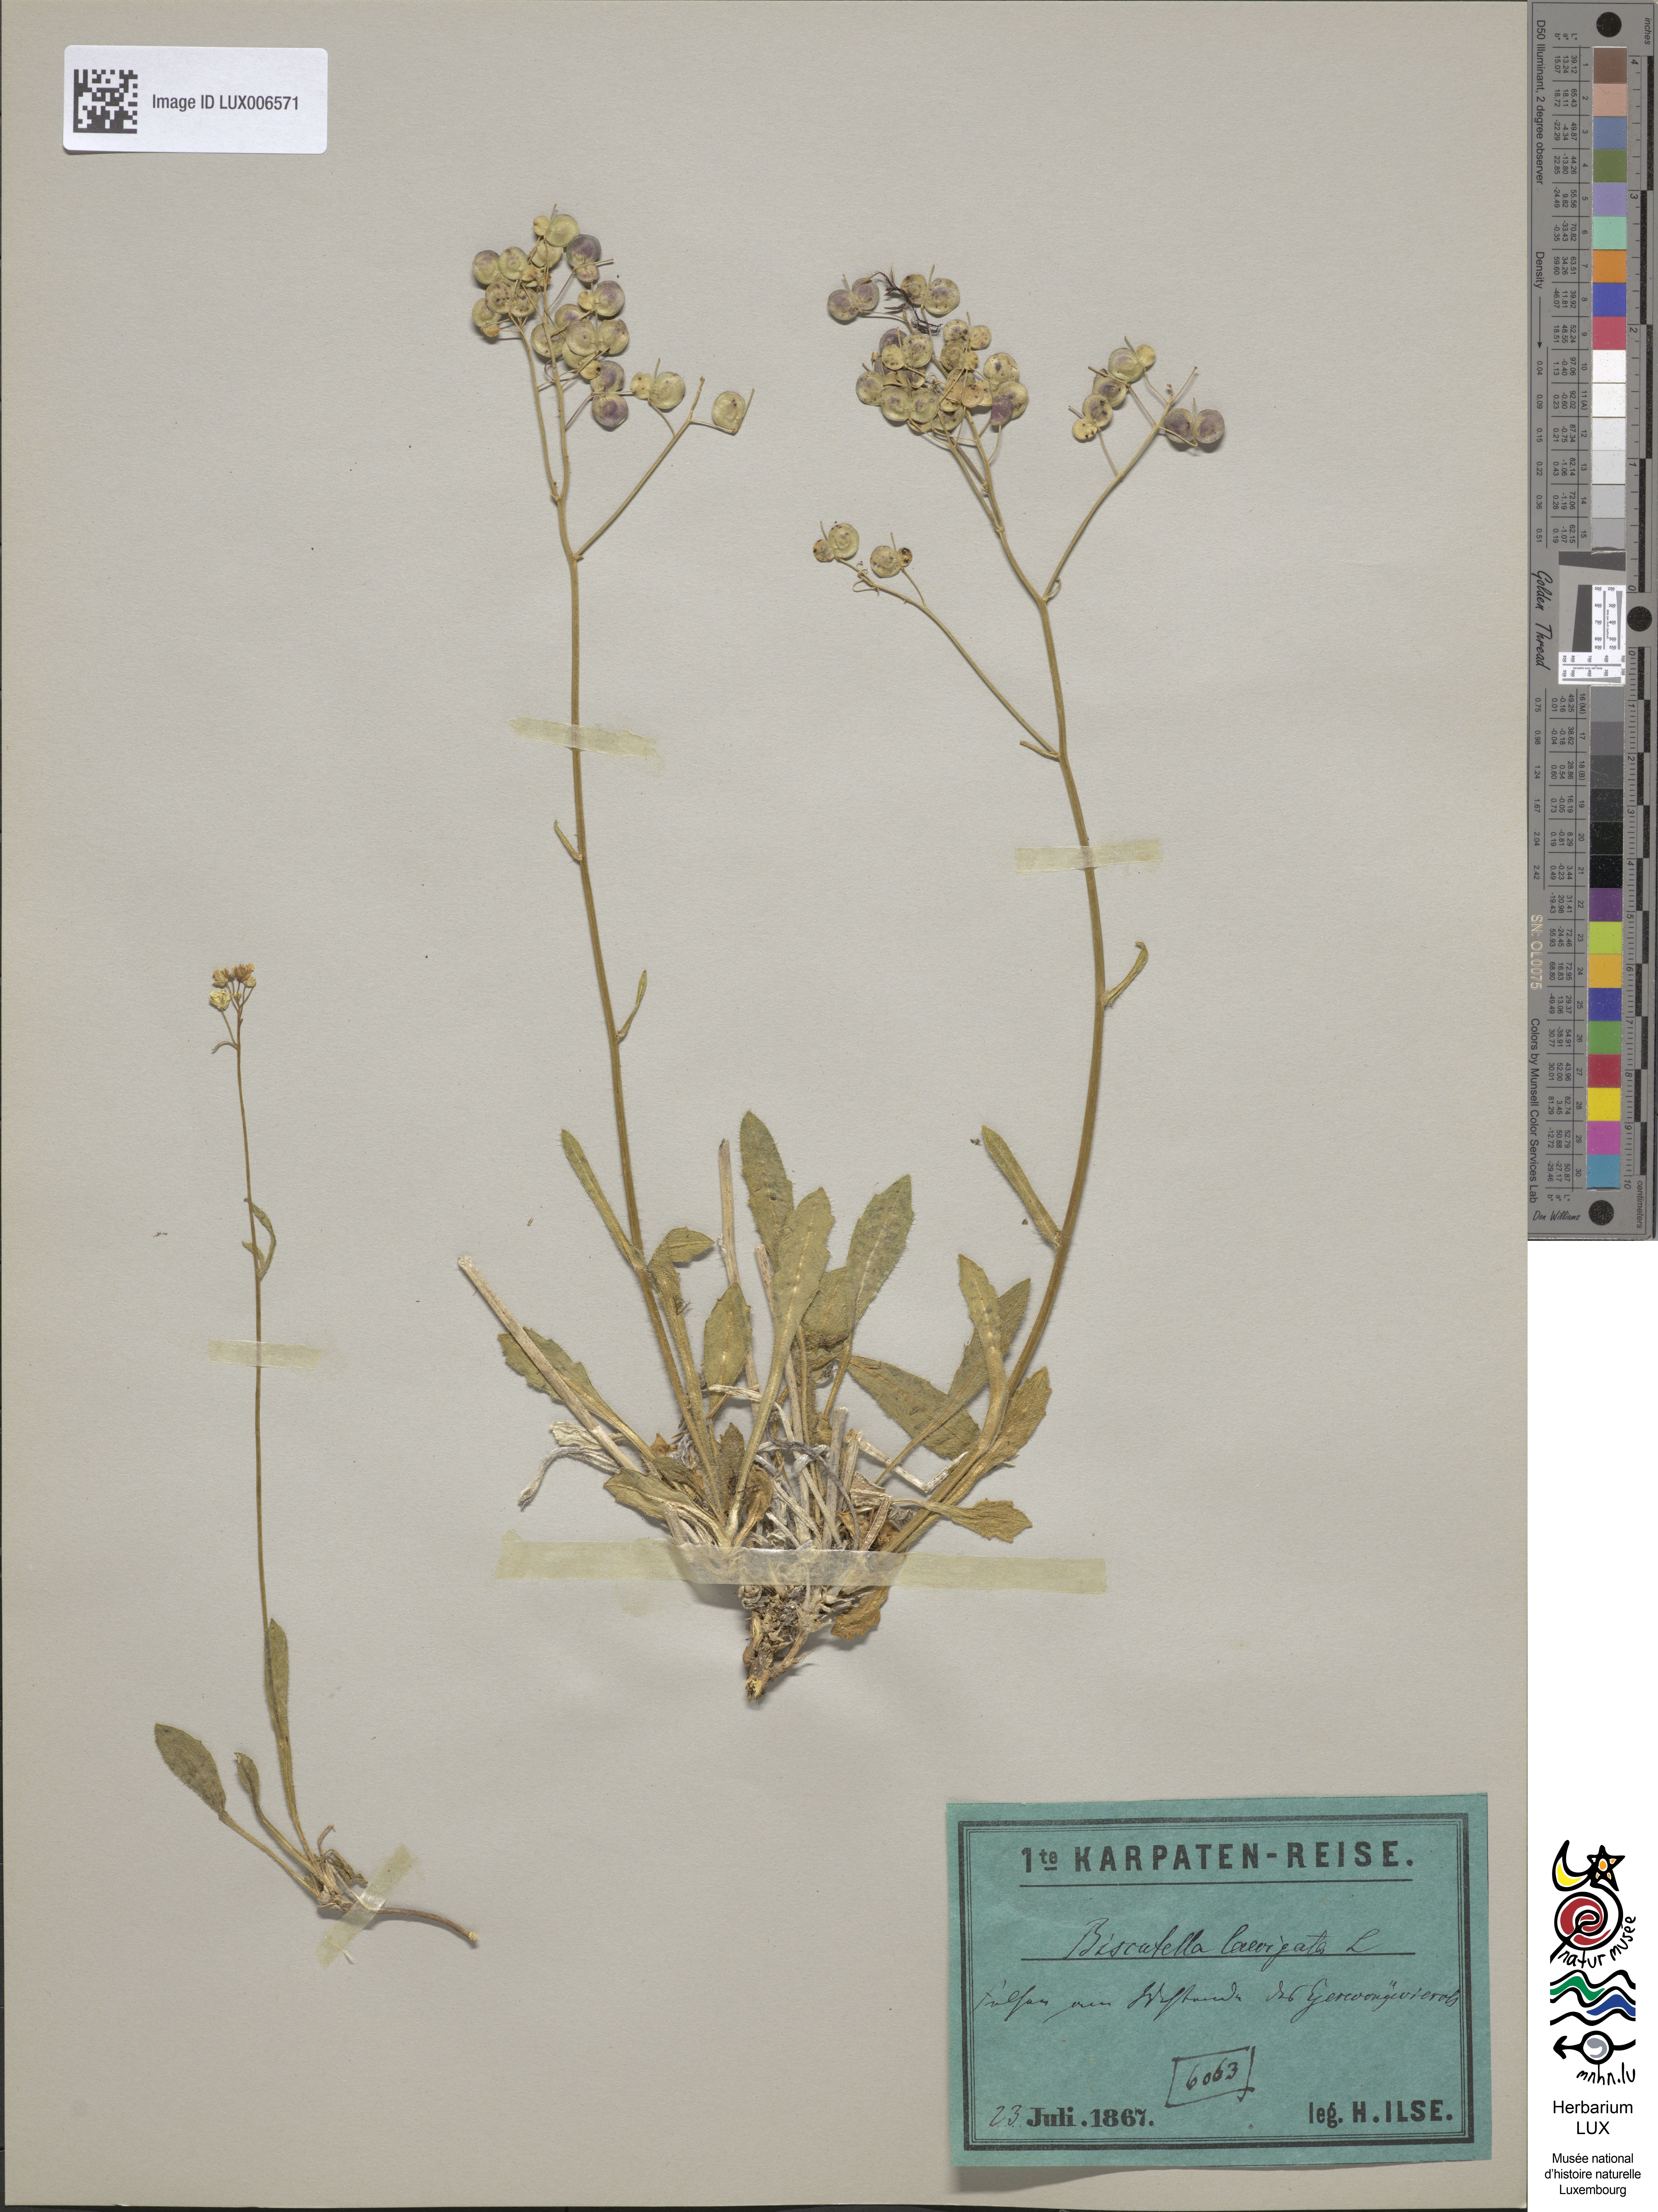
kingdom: Plantae
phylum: Tracheophyta
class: Magnoliopsida
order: Brassicales
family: Brassicaceae
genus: Biscutella
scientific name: Biscutella laevigata
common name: Buckler mustard
